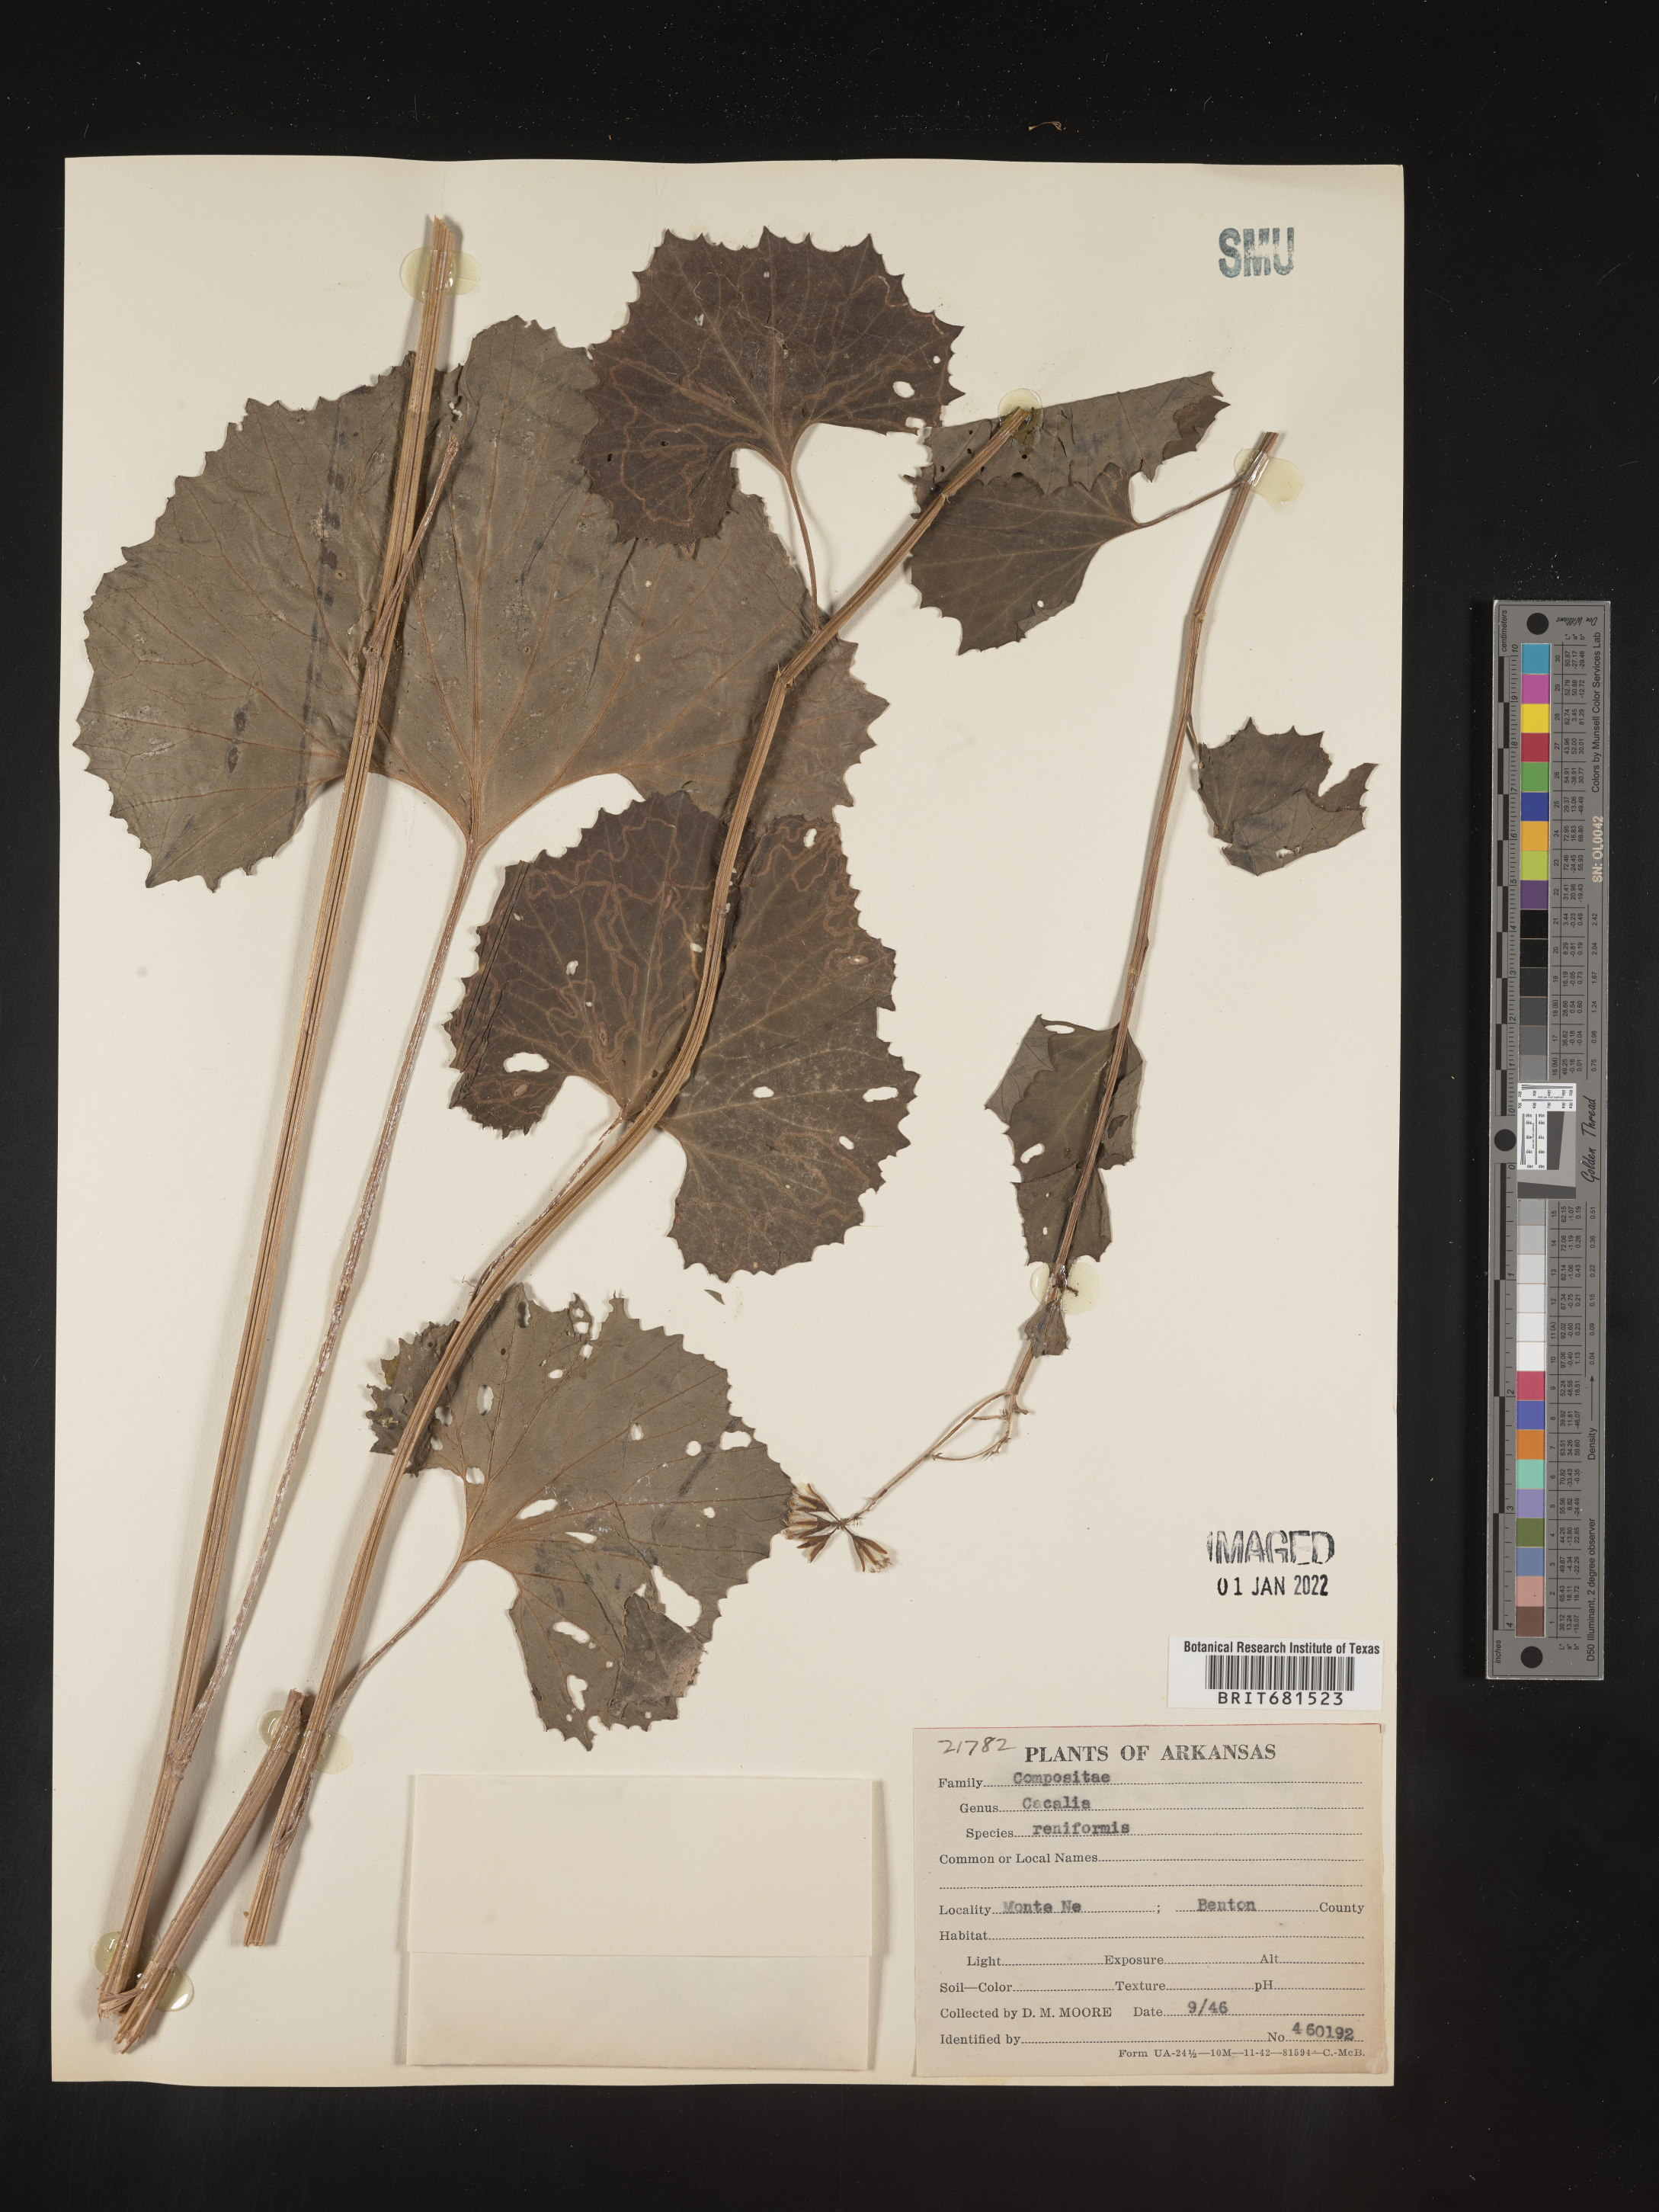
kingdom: Plantae
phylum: Tracheophyta
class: Magnoliopsida
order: Asterales
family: Asteraceae
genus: Arnoglossum
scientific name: Arnoglossum reniforme
